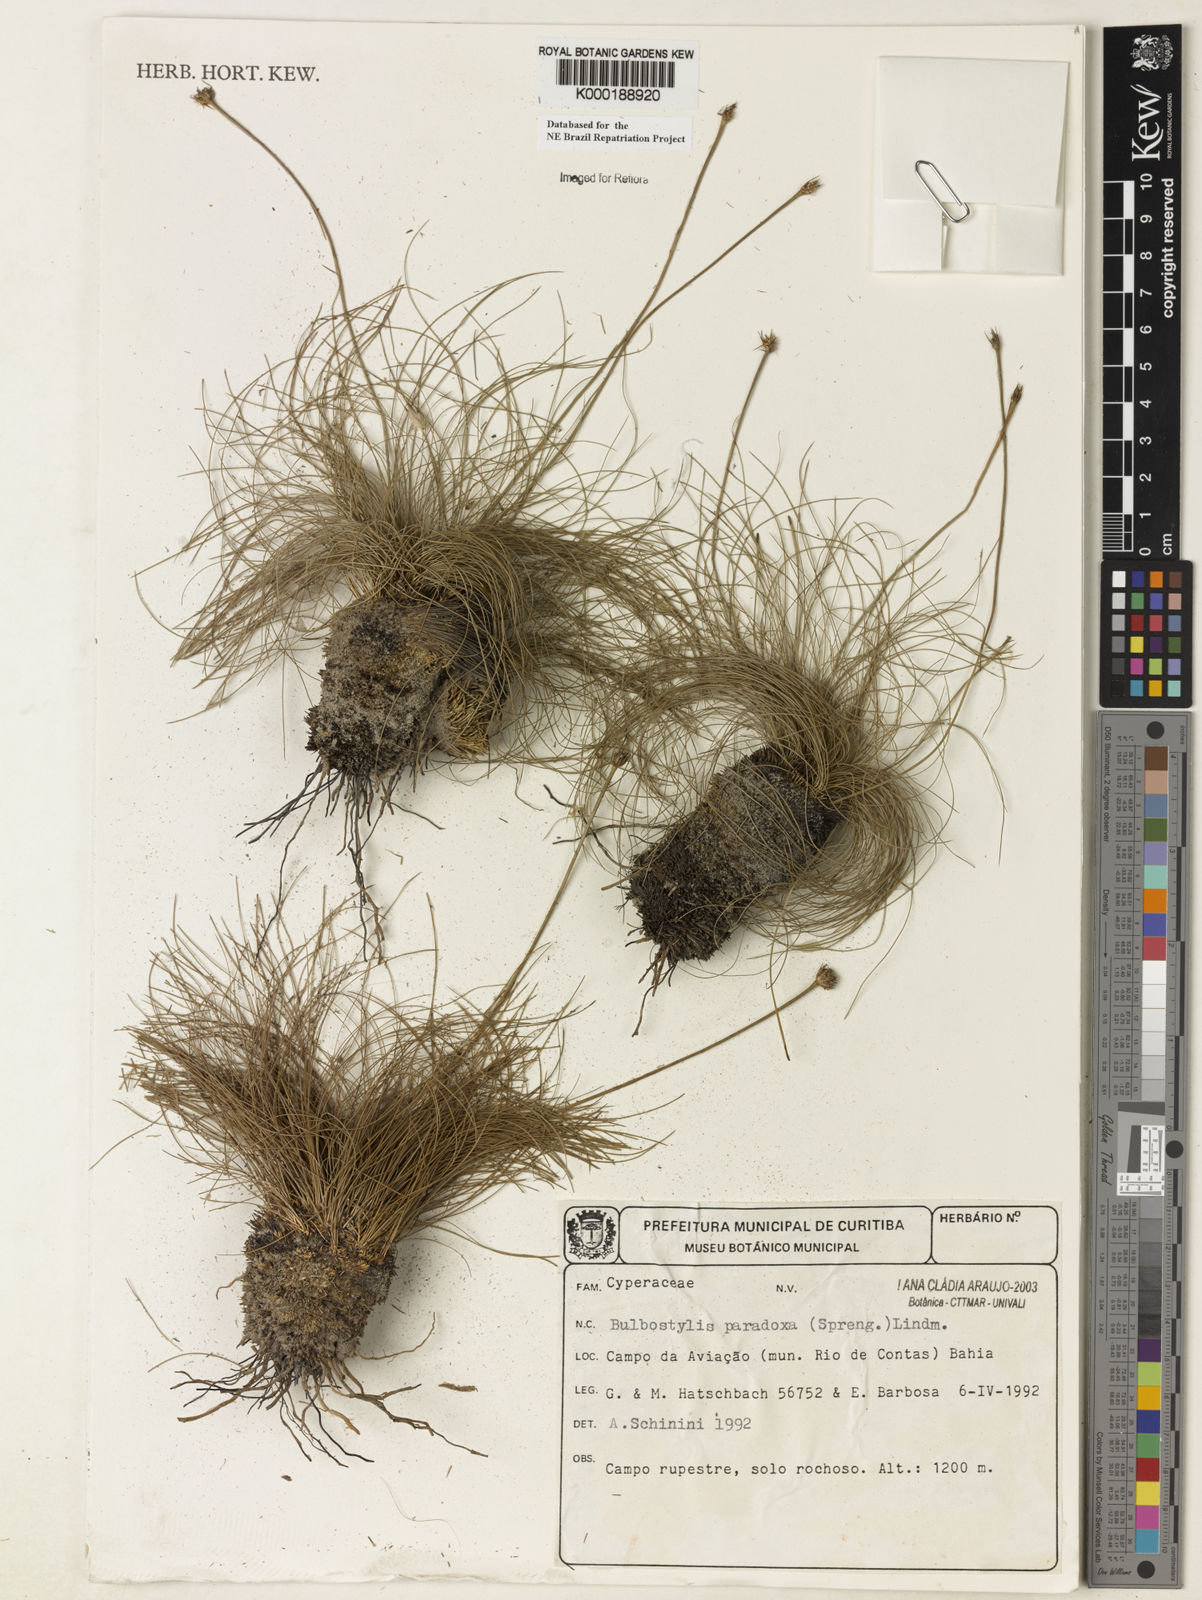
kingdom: Plantae
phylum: Tracheophyta
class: Liliopsida
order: Poales
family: Cyperaceae
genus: Bulbostylis
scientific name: Bulbostylis paradoxa
